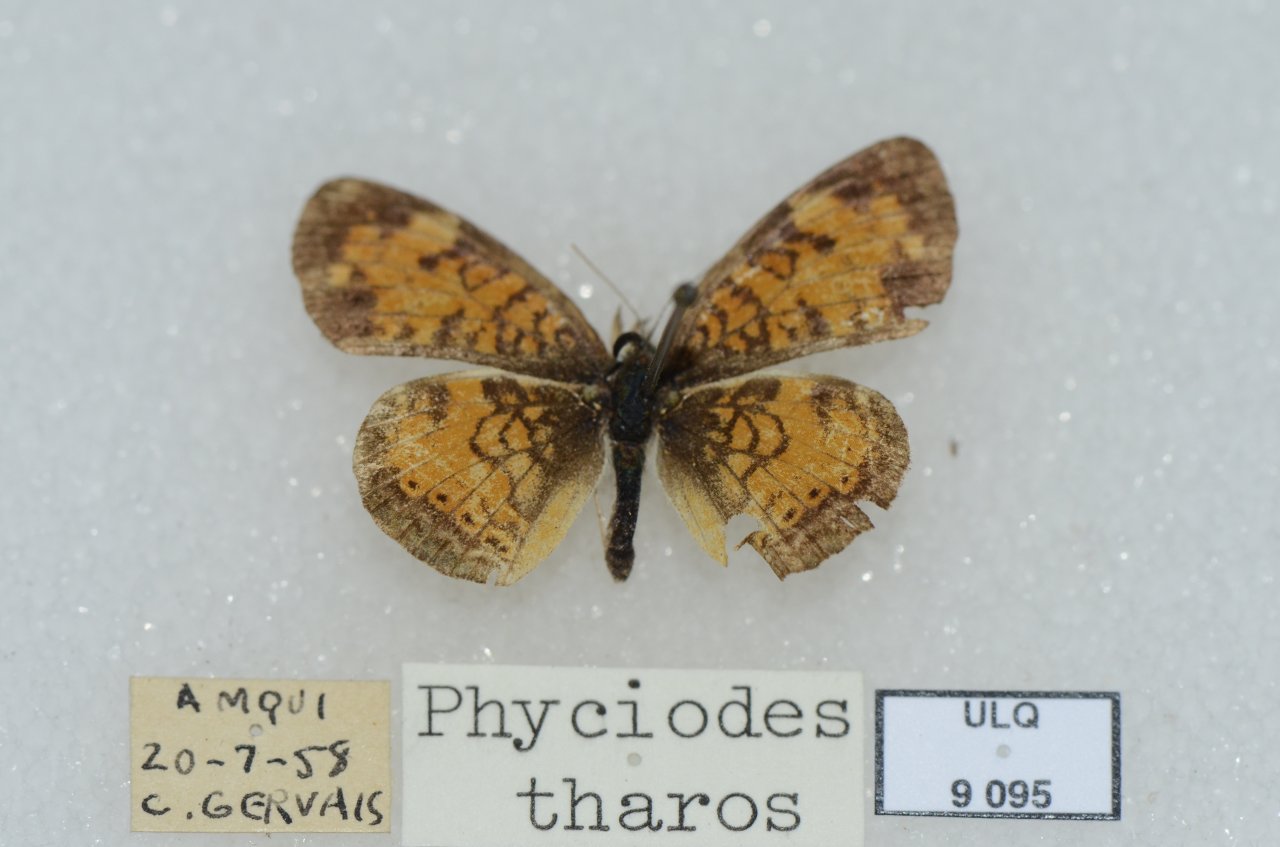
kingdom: Animalia
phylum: Arthropoda
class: Insecta
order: Lepidoptera
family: Nymphalidae
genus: Phyciodes
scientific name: Phyciodes tharos
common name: Northern Crescent
